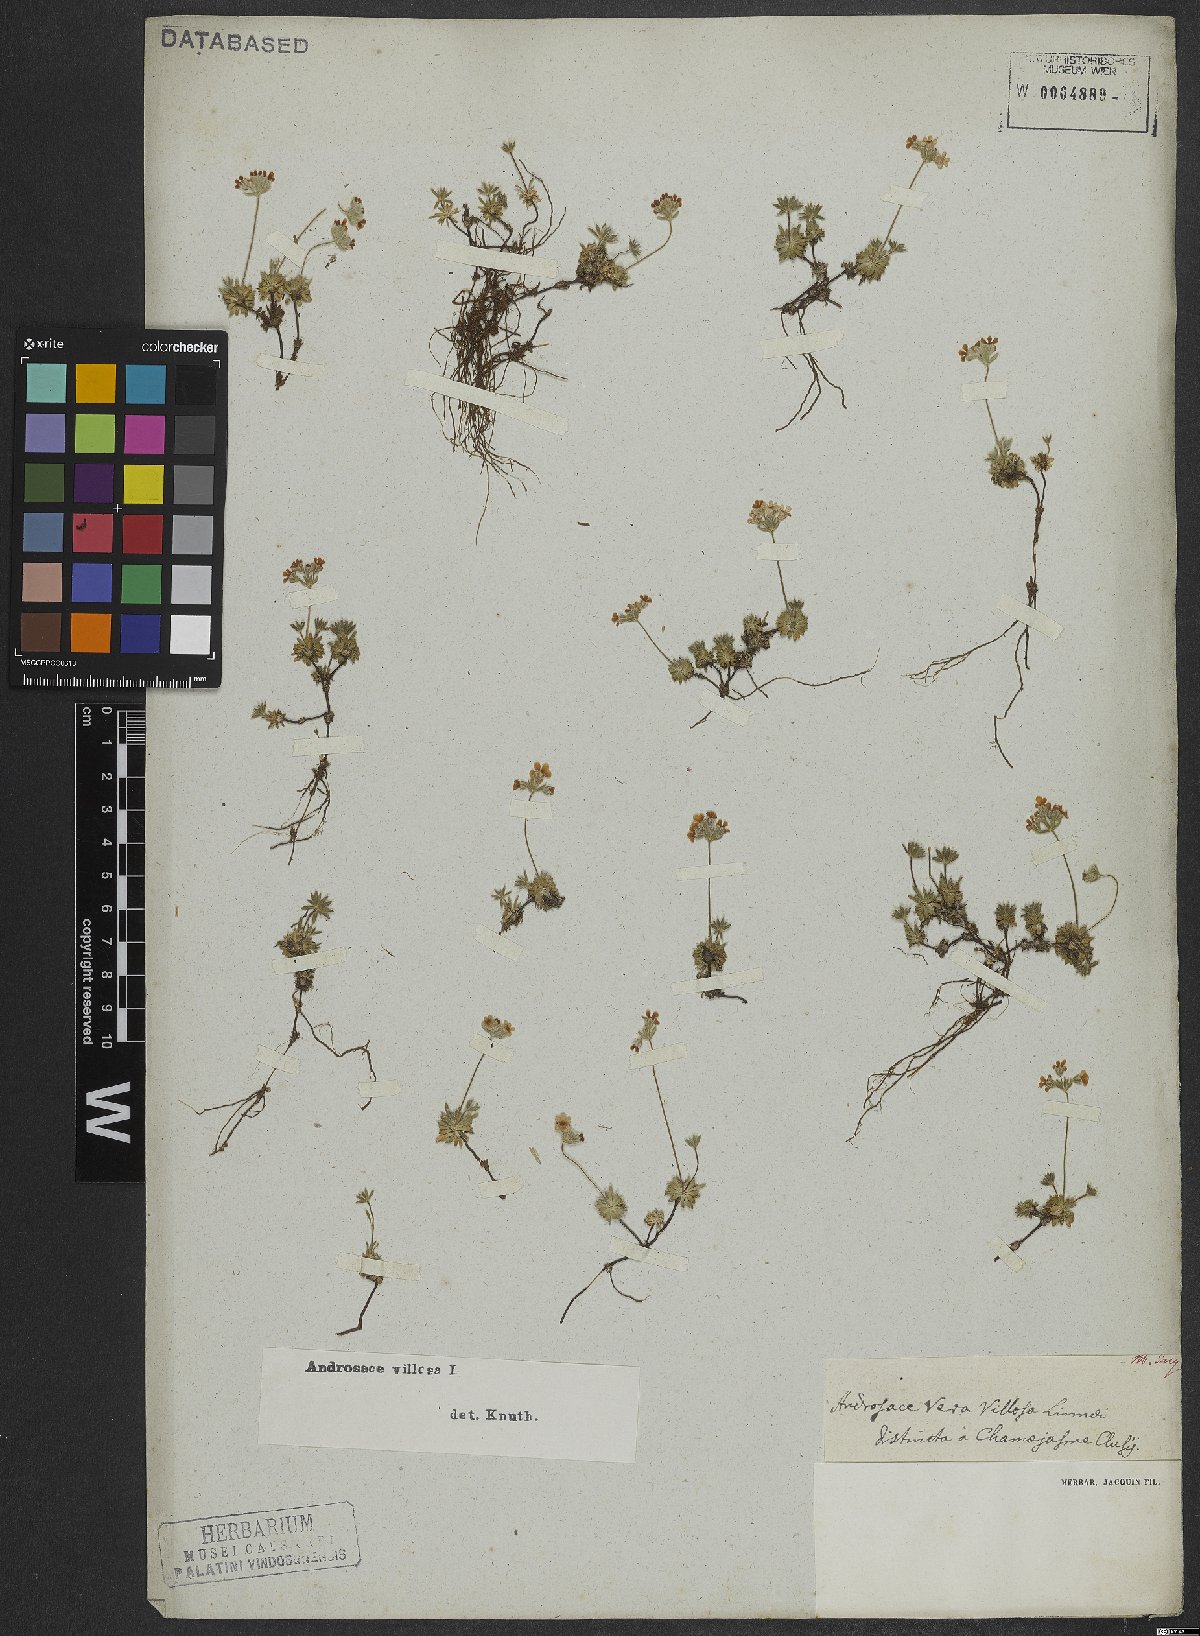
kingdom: Plantae
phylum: Tracheophyta
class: Magnoliopsida
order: Ericales
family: Primulaceae
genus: Androsace
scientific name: Androsace villosa
